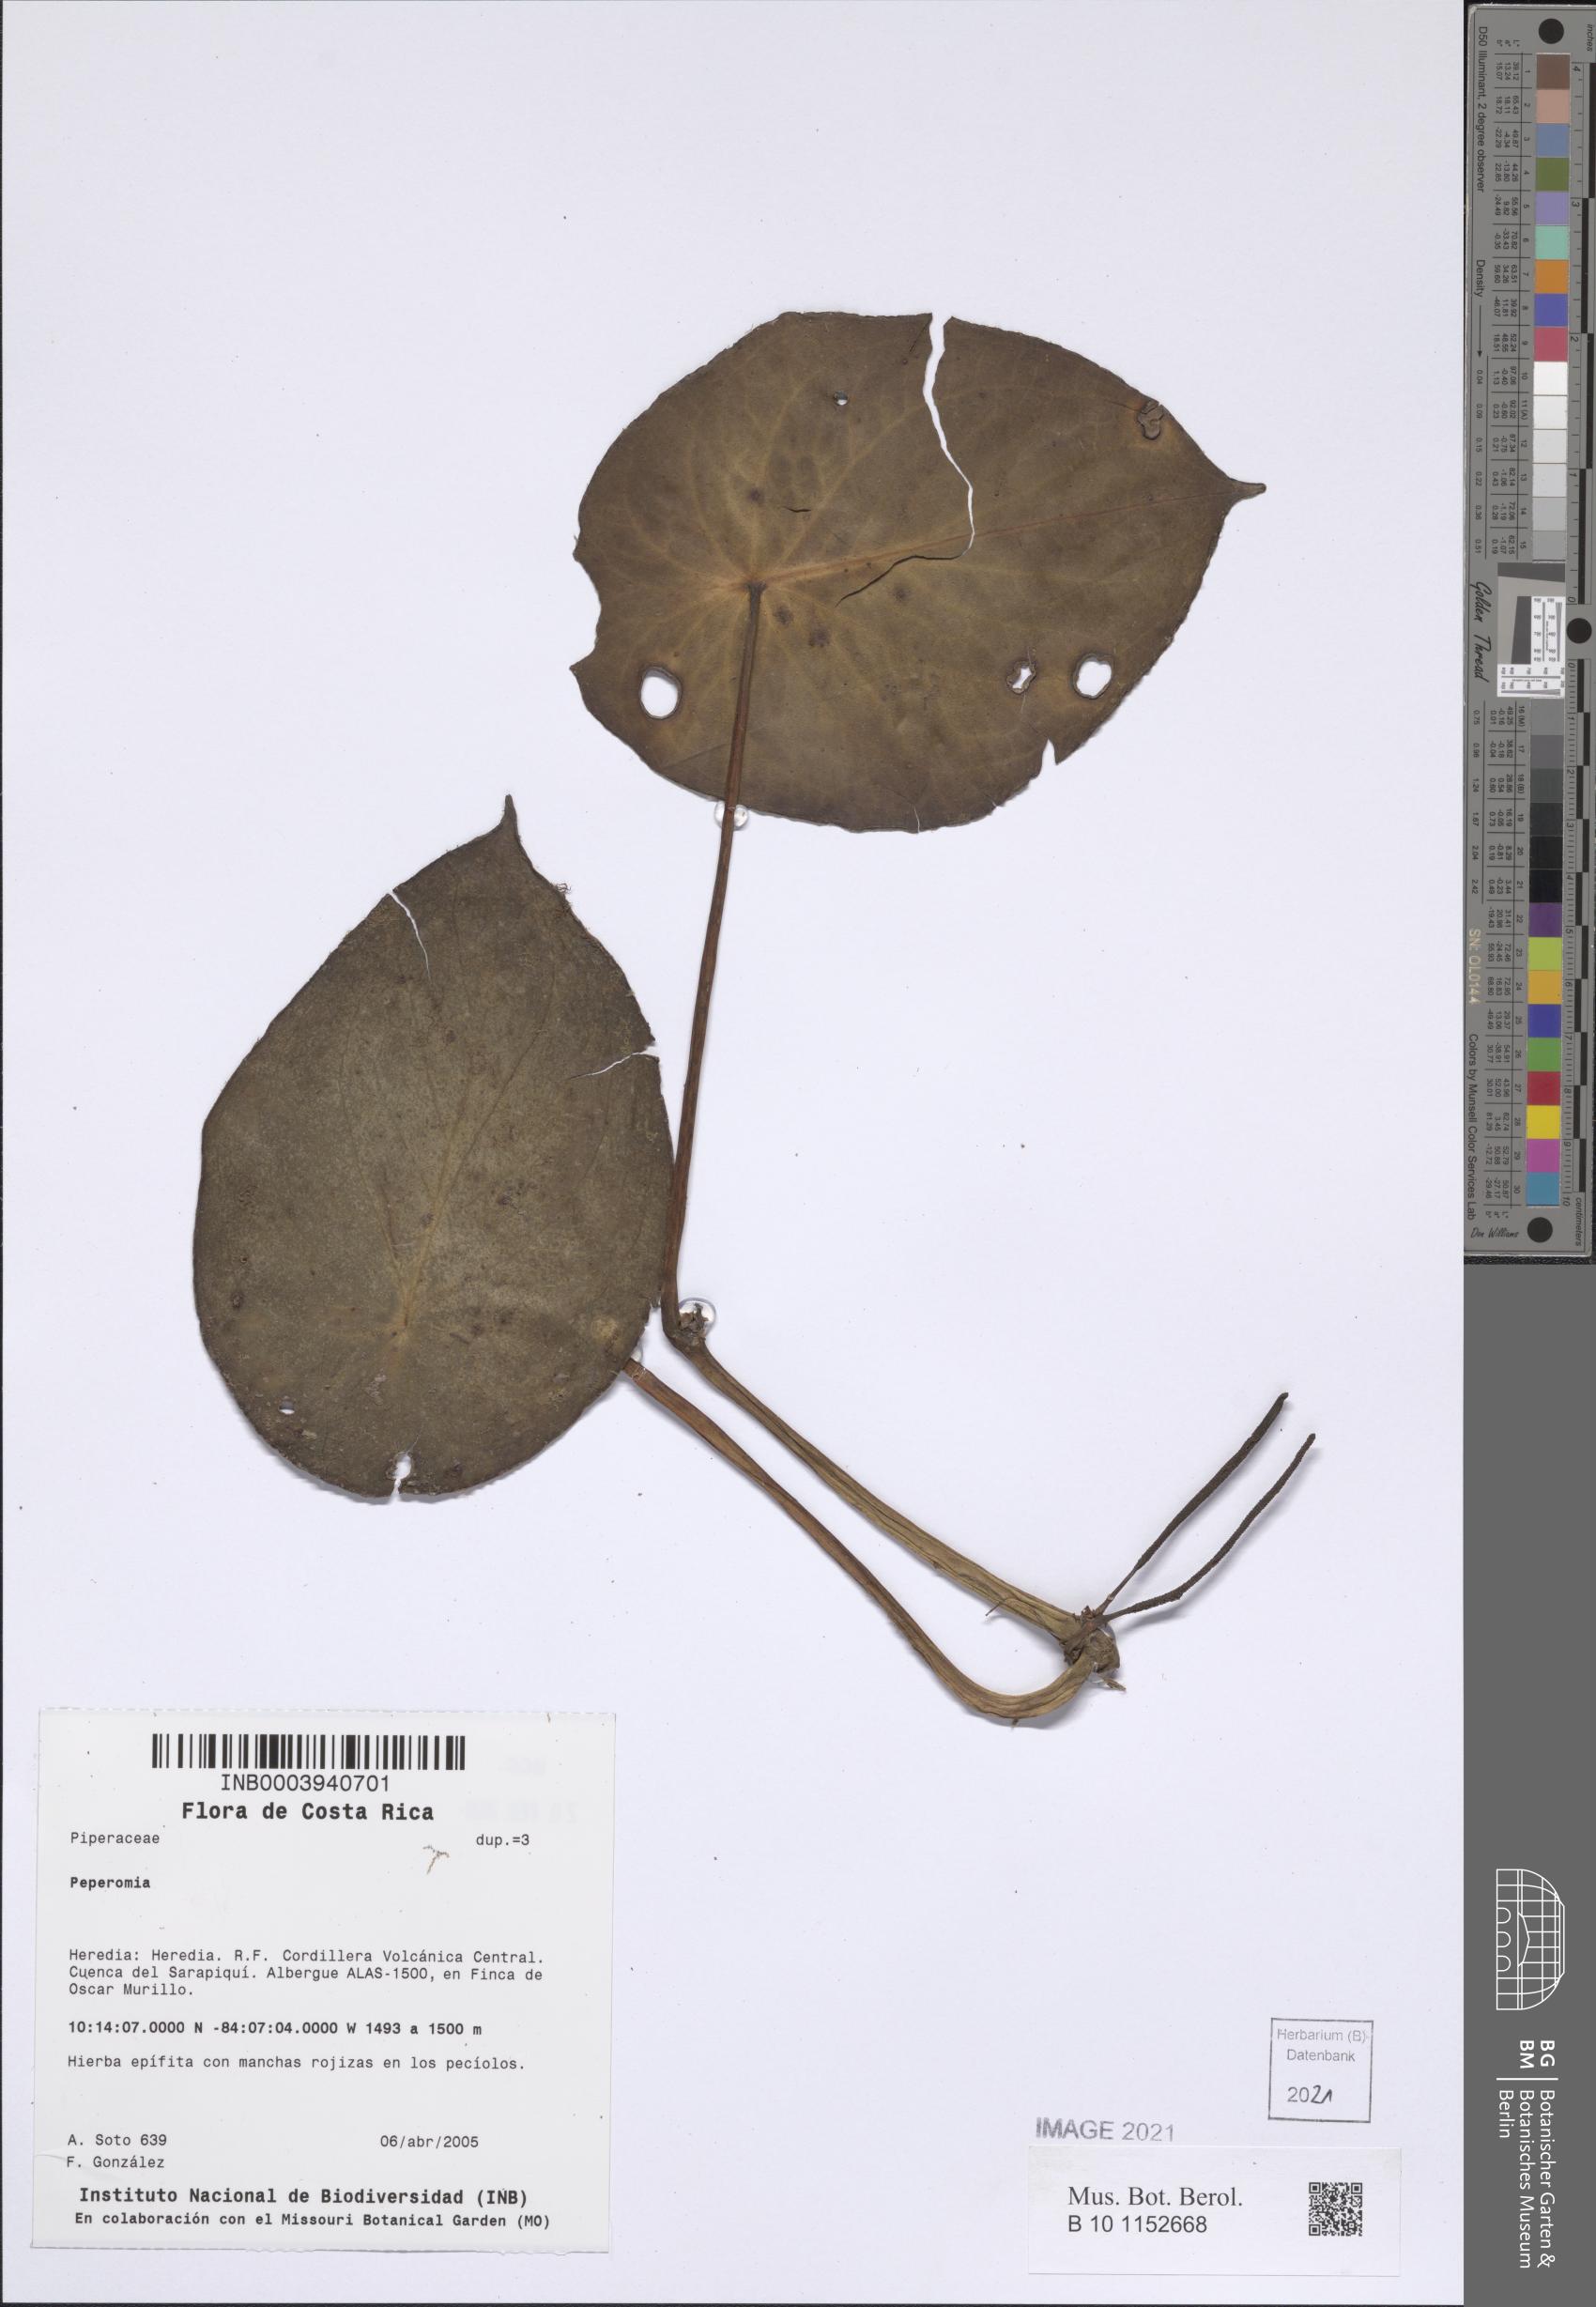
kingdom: Plantae
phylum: Tracheophyta
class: Magnoliopsida
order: Piperales
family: Piperaceae
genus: Peperomia
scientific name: Peperomia
